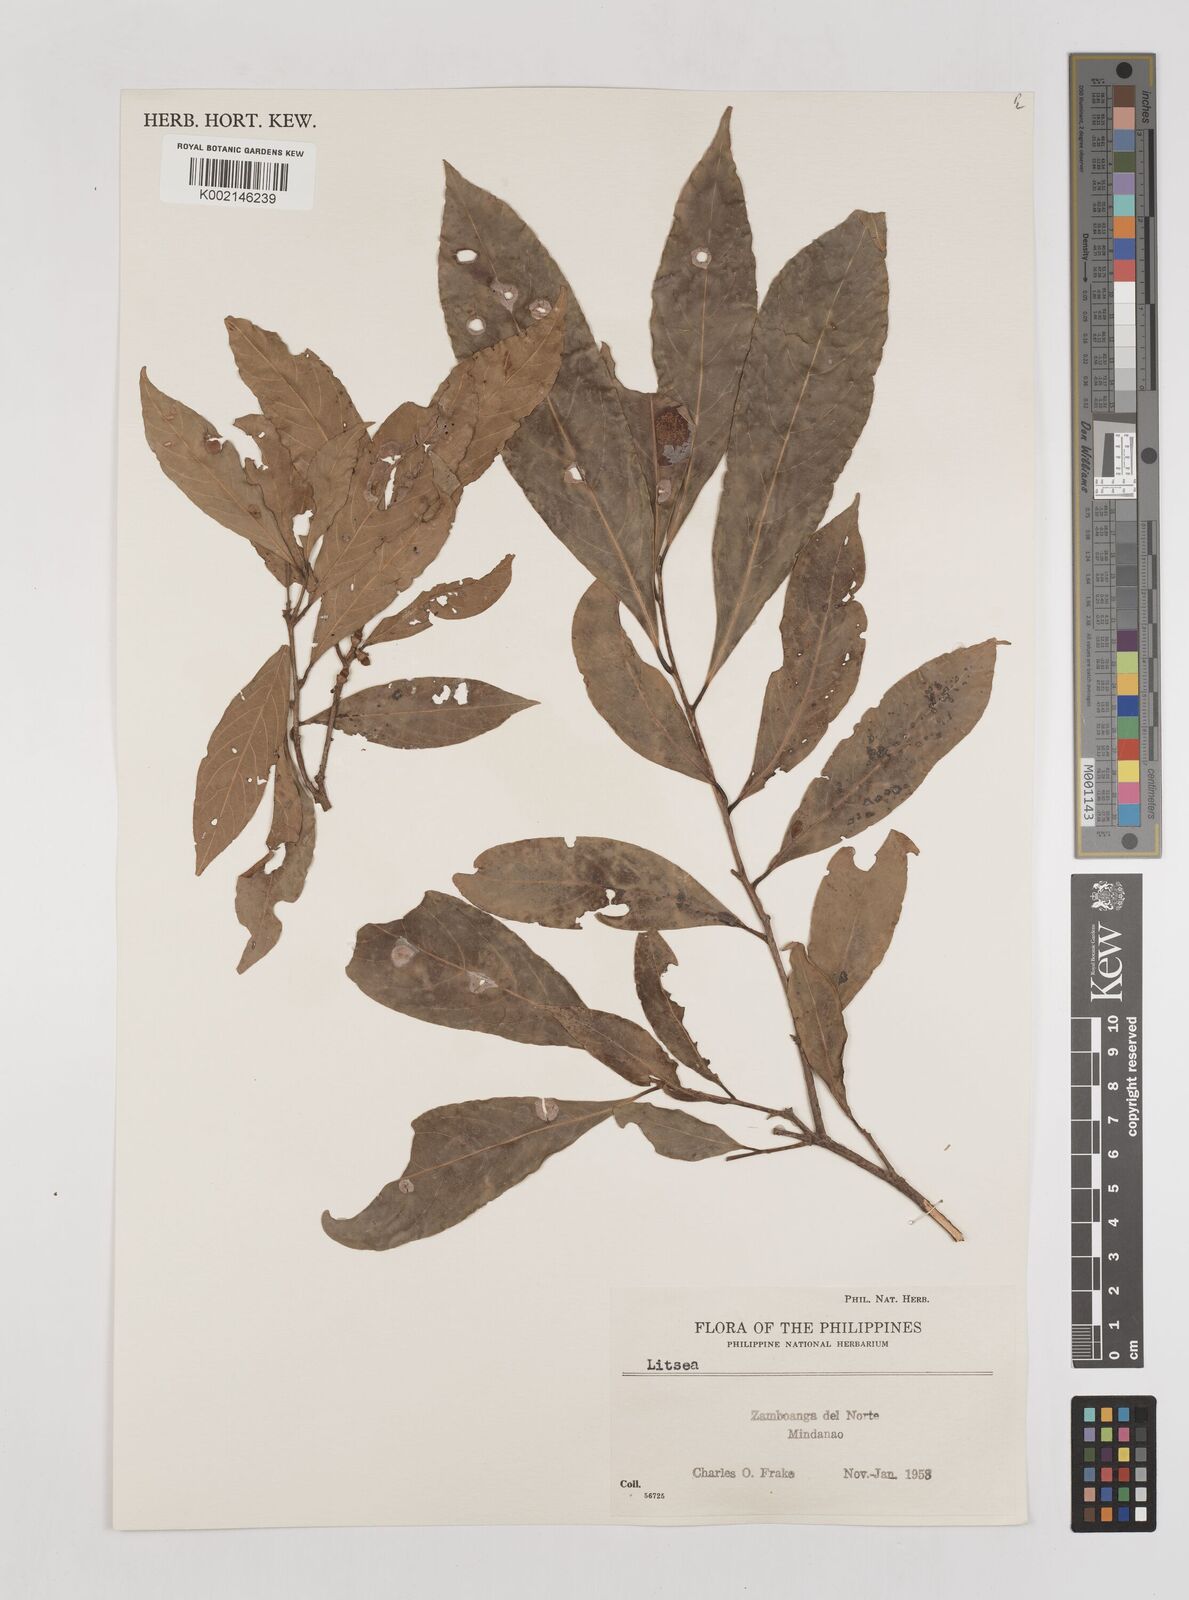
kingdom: Plantae
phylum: Tracheophyta
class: Magnoliopsida
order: Laurales
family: Lauraceae
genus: Litsea
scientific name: Litsea
